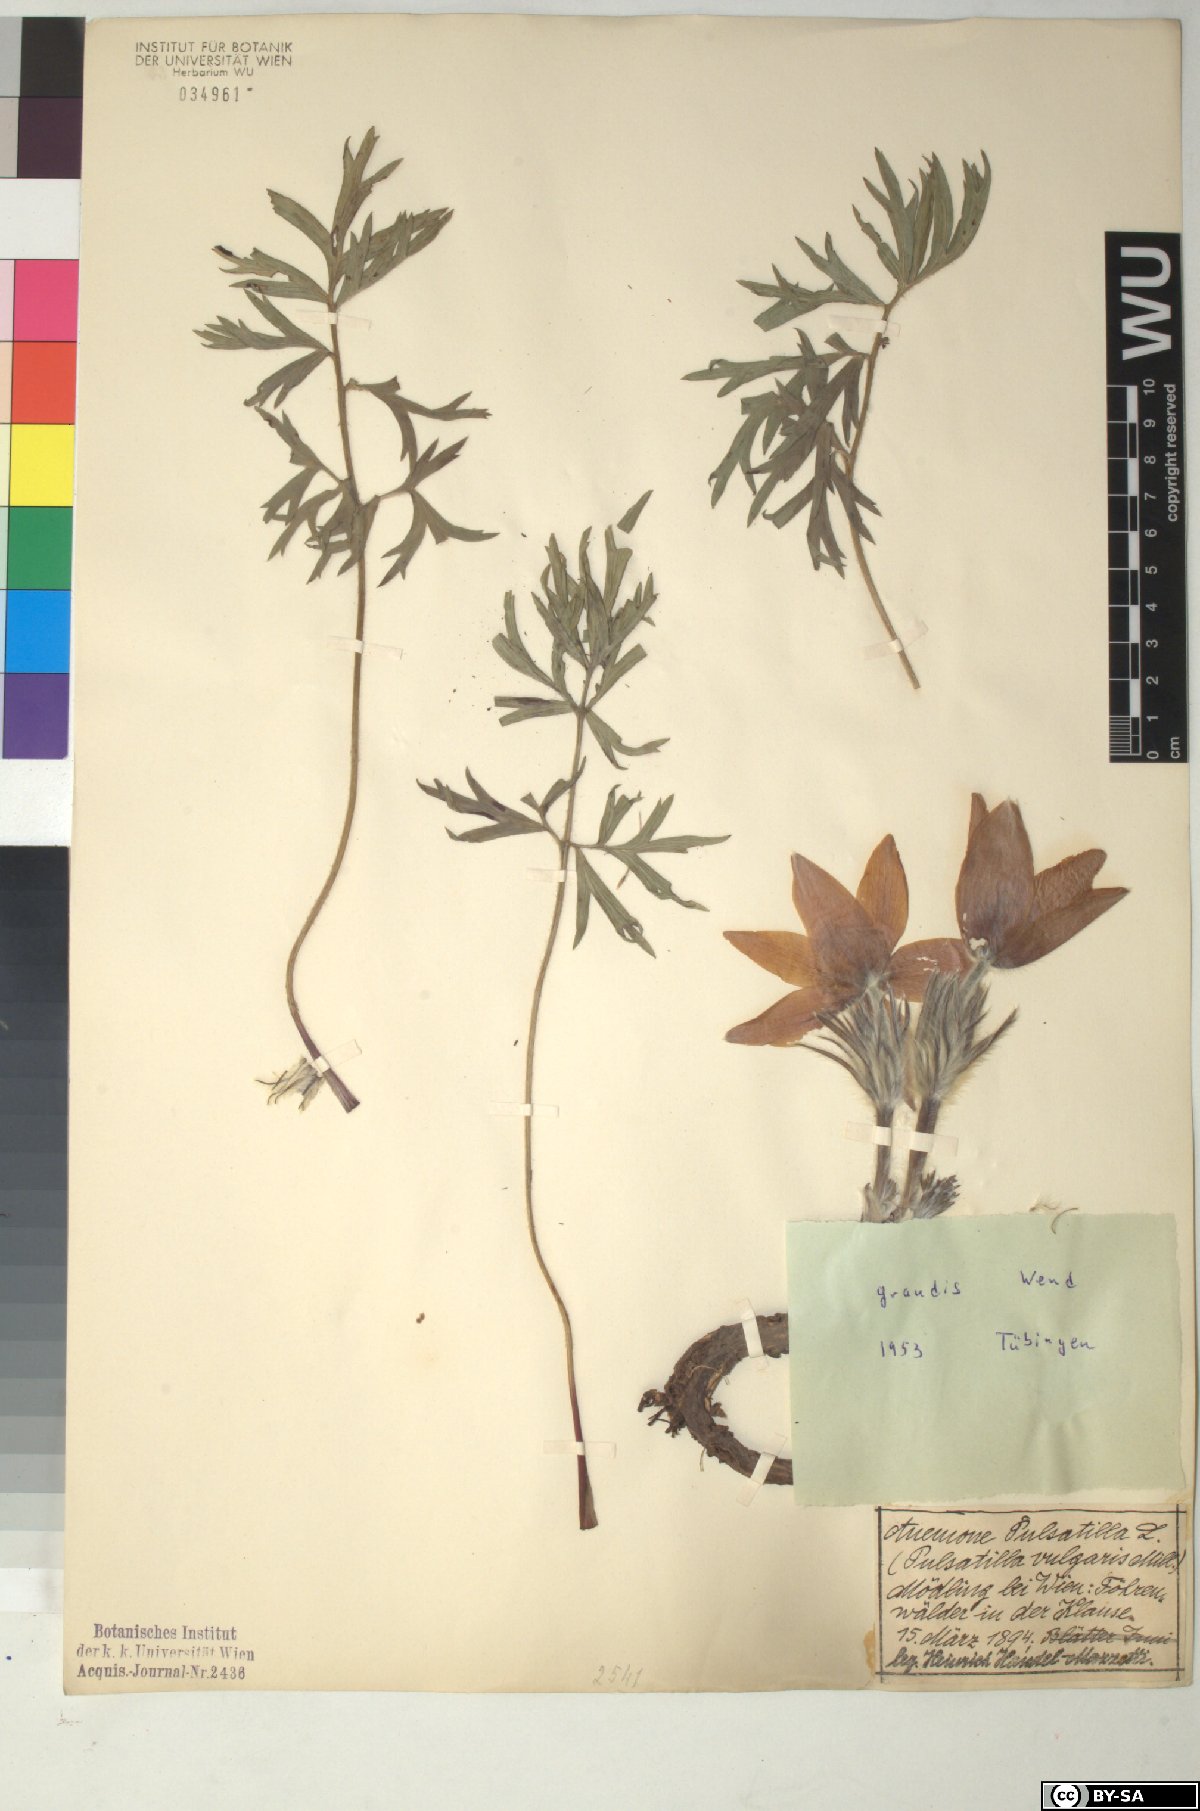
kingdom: Plantae
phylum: Tracheophyta
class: Magnoliopsida
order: Ranunculales
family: Ranunculaceae
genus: Pulsatilla
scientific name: Pulsatilla grandis
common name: Greater pasque flower
